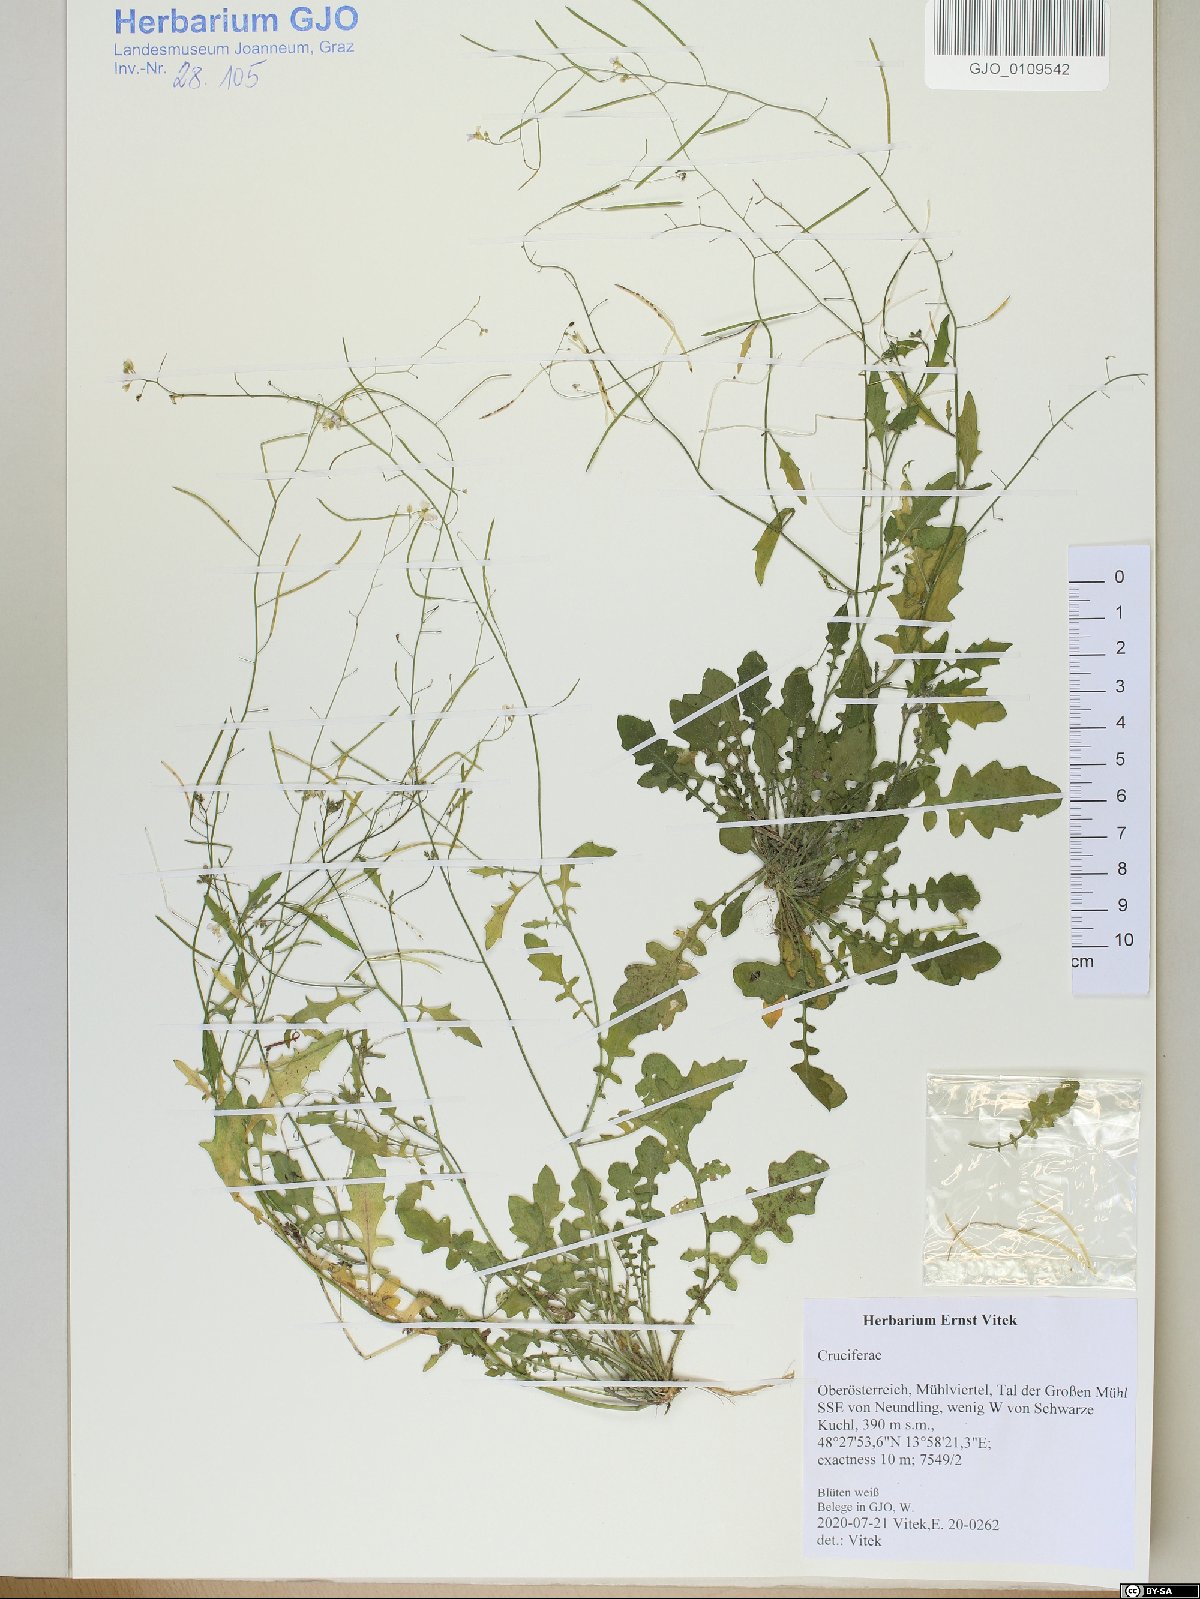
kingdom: Plantae
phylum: Tracheophyta
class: Magnoliopsida
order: Brassicales
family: Brassicaceae
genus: Arabidopsis
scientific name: Arabidopsis arenosa
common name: Sand rock-cress
